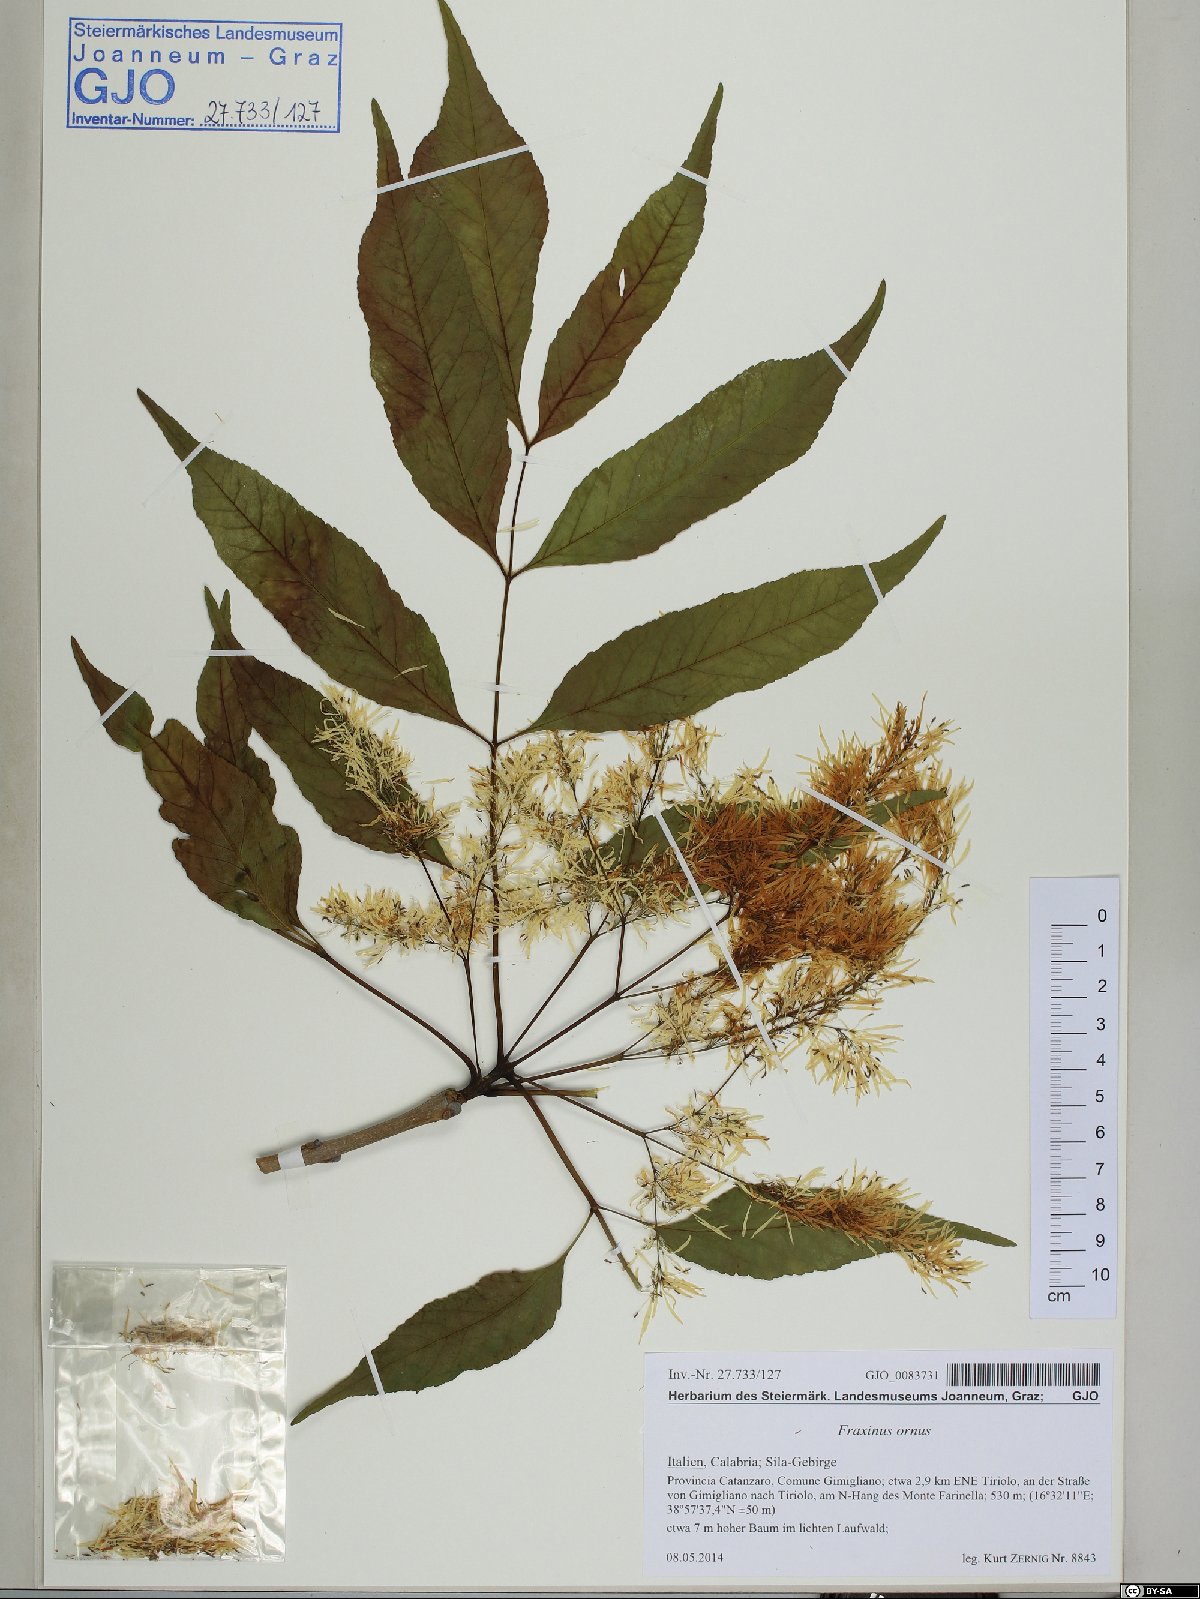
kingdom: Plantae
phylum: Tracheophyta
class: Magnoliopsida
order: Lamiales
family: Oleaceae
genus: Fraxinus
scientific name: Fraxinus ornus
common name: Manna ash
